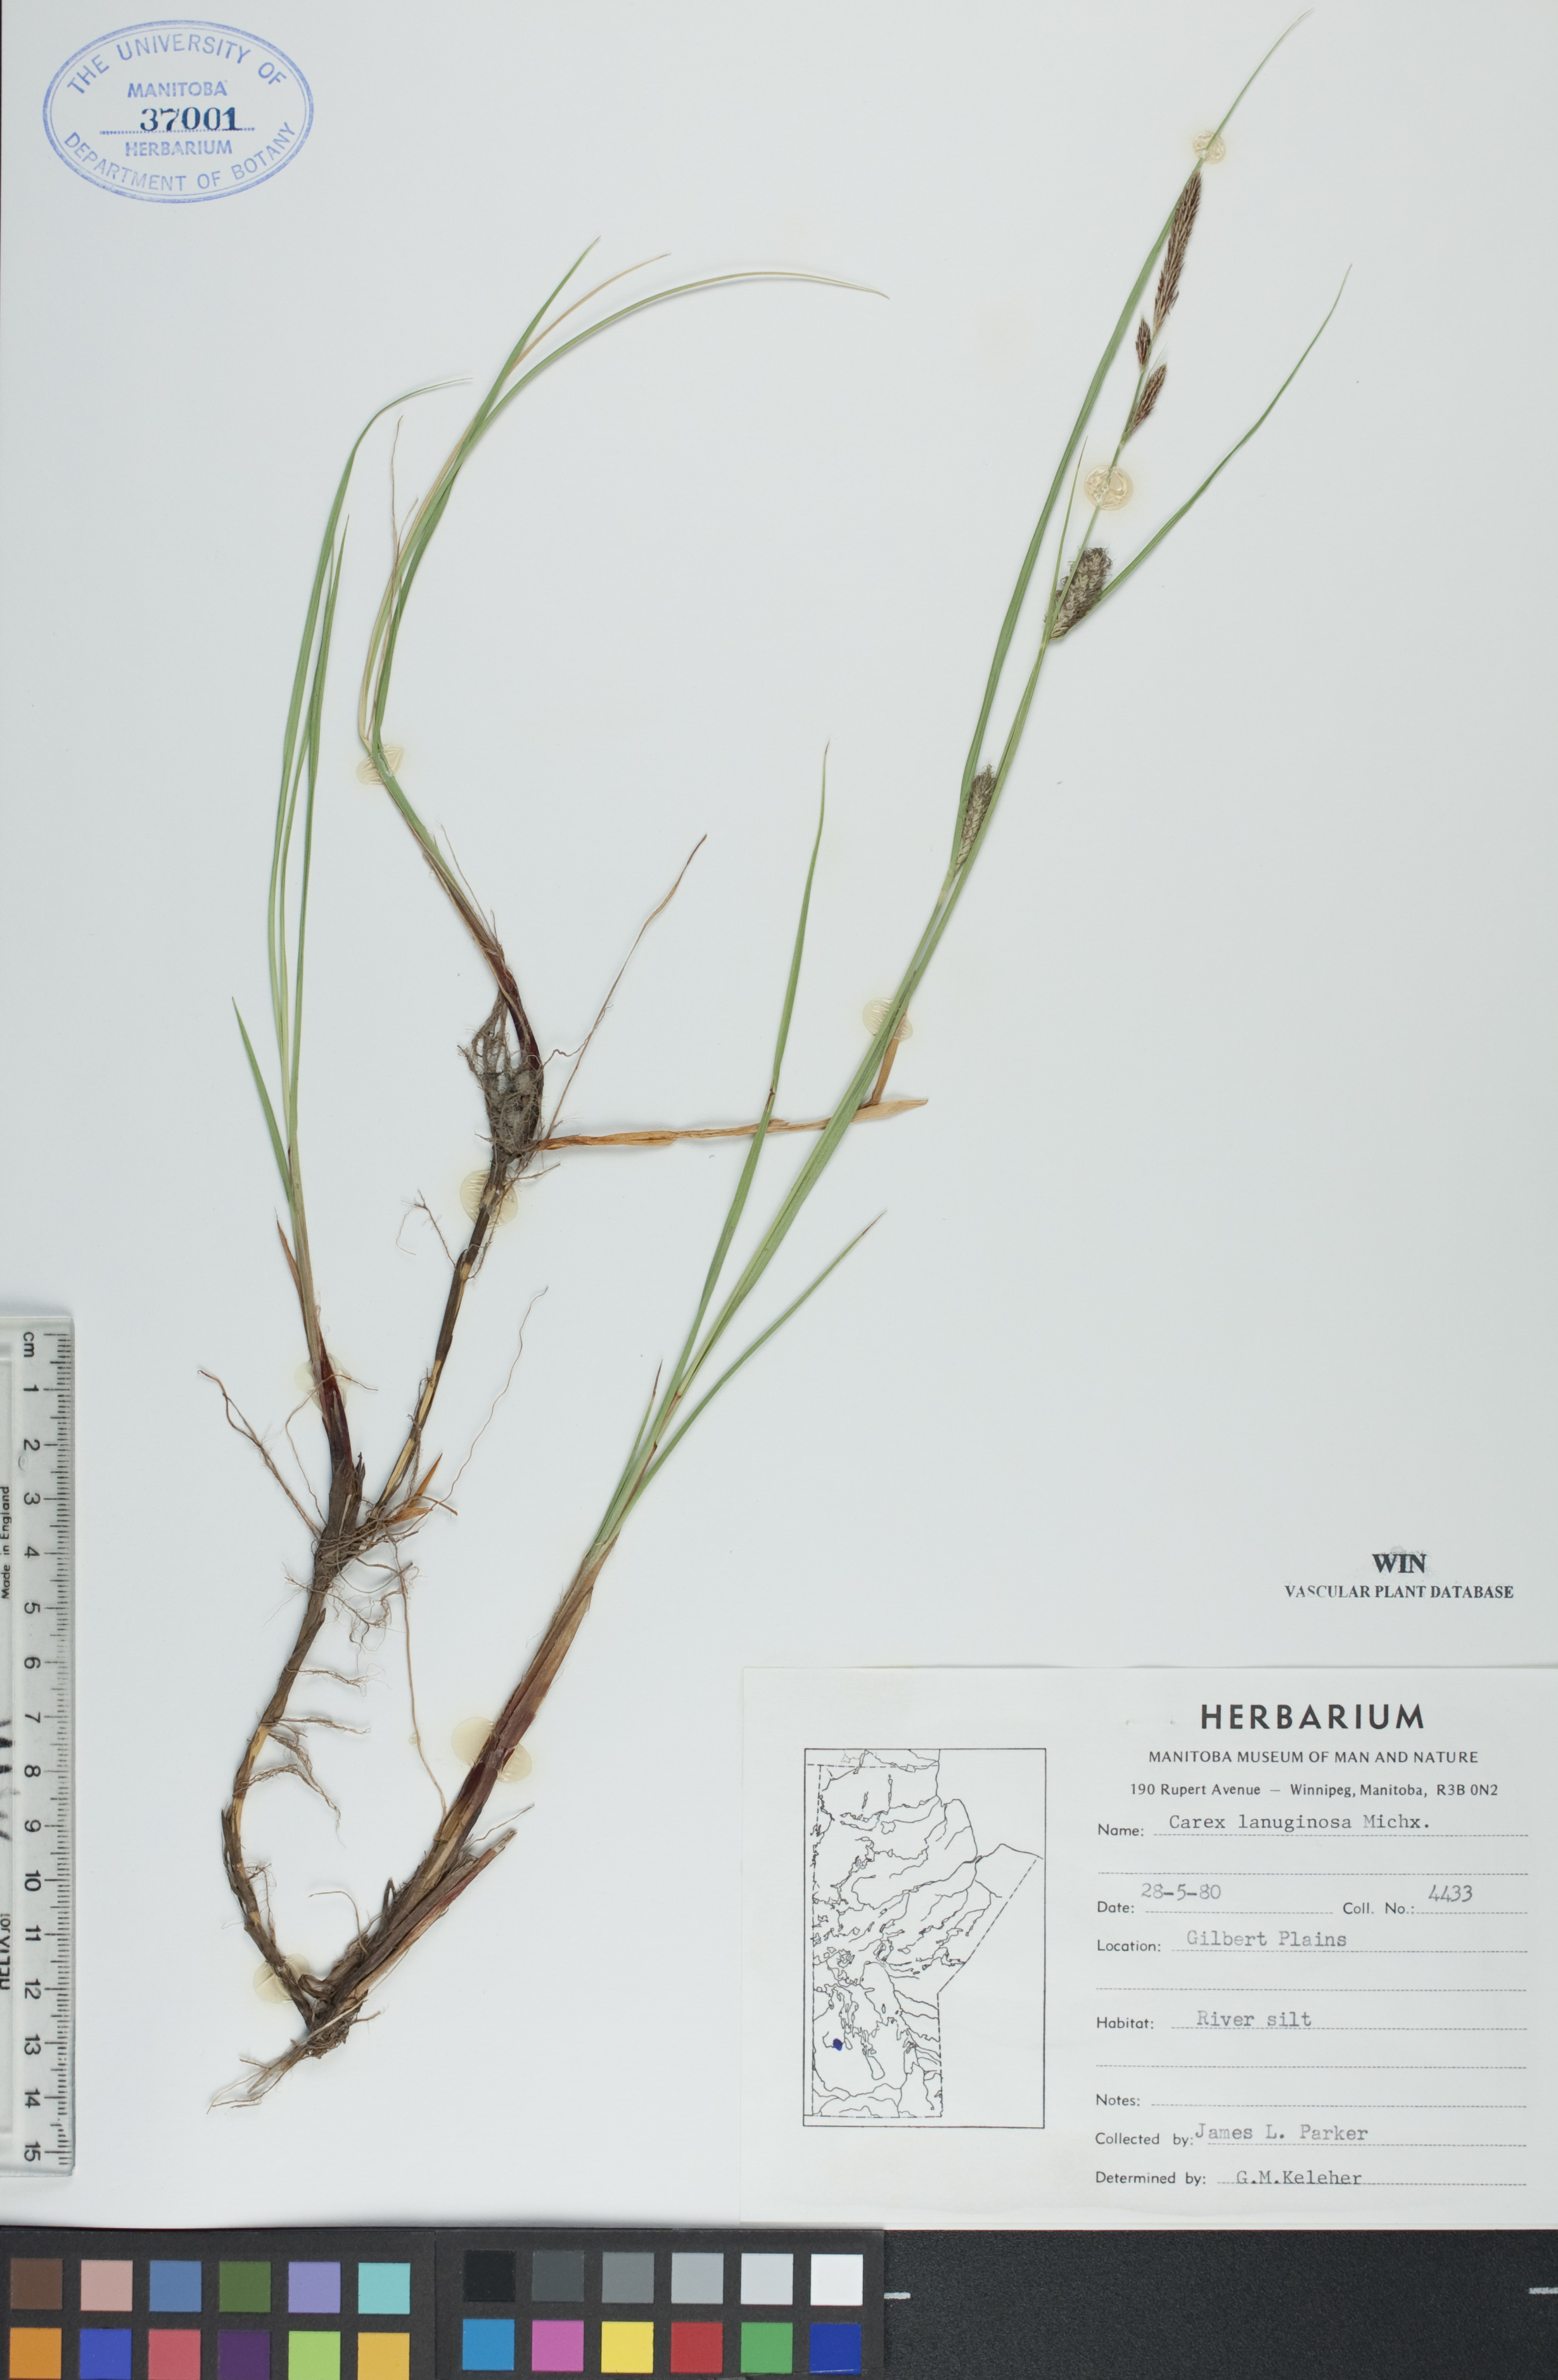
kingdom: Plantae
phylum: Tracheophyta
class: Liliopsida
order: Poales
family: Cyperaceae
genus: Carex
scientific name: Carex lasiocarpa
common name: Slender sedge
